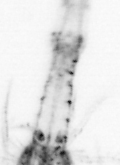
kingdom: Animalia
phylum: Arthropoda
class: Copepoda
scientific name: Copepoda
